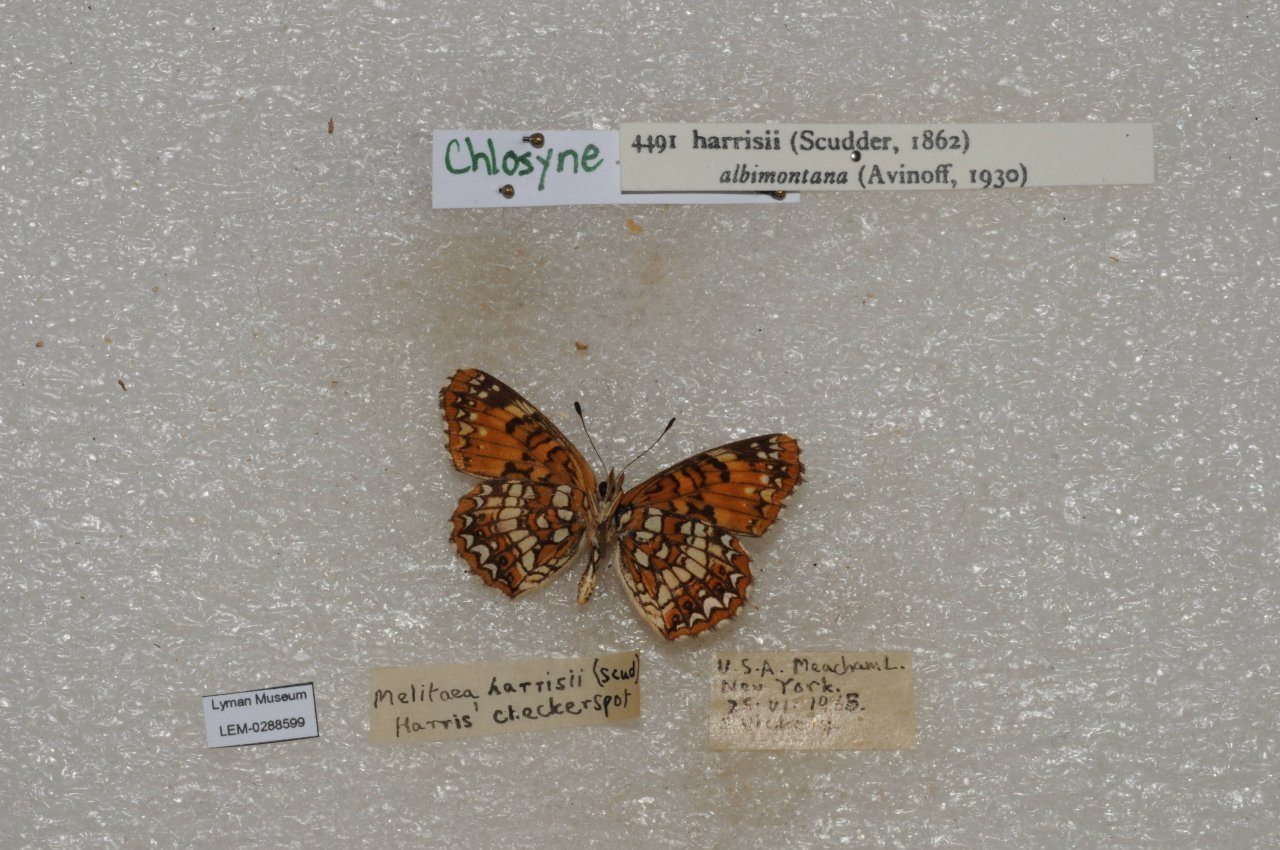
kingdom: Animalia
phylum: Arthropoda
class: Insecta
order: Lepidoptera
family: Nymphalidae
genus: Chlosyne
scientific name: Chlosyne harrisii
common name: Harris's Checkerspot
